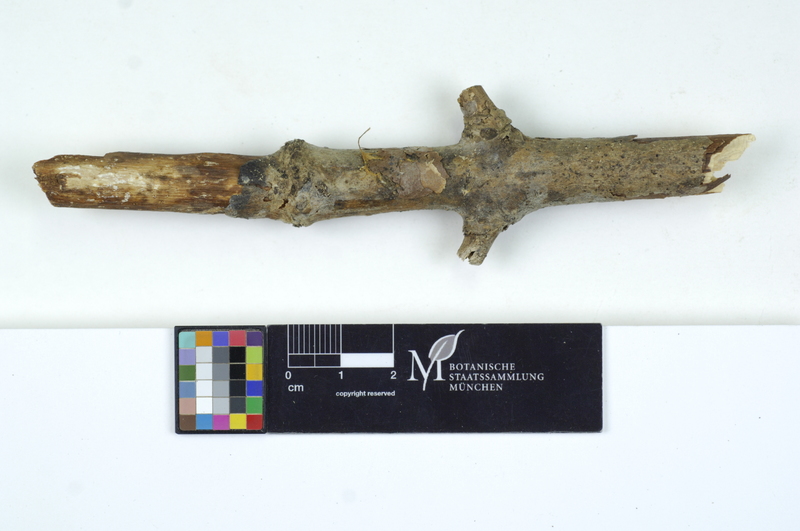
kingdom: Plantae
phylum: Tracheophyta
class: Magnoliopsida
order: Lamiales
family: Oleaceae
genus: Fraxinus
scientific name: Fraxinus
